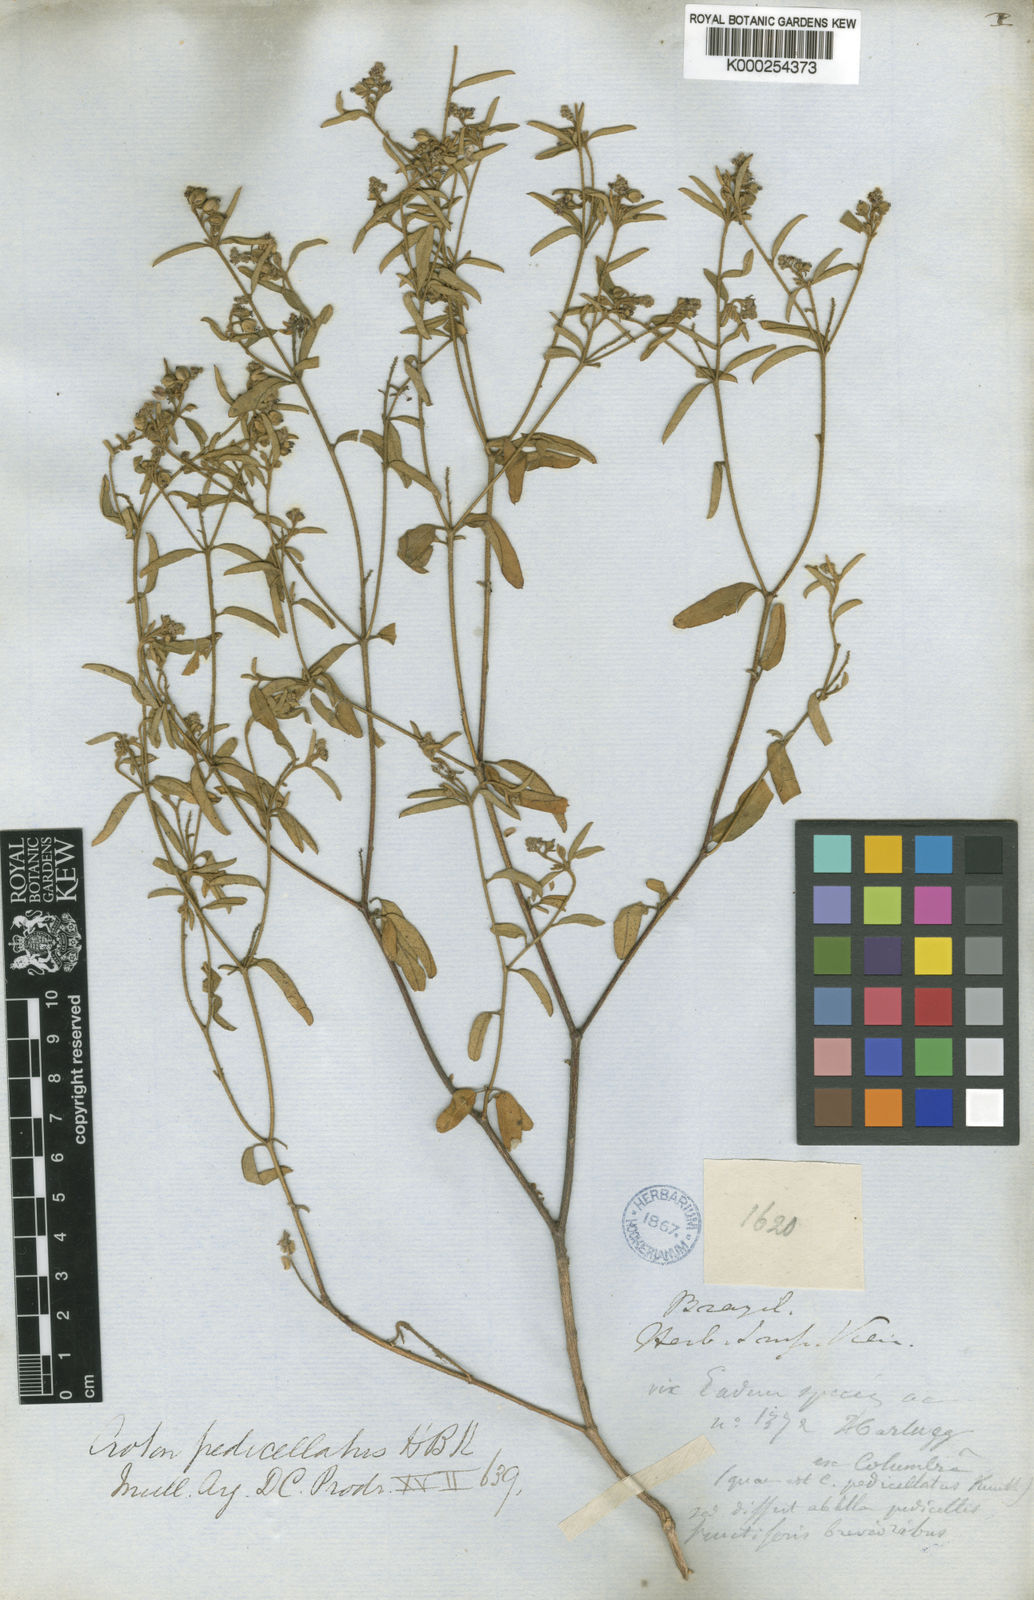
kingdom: Plantae
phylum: Tracheophyta
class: Magnoliopsida
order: Malpighiales
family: Euphorbiaceae
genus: Croton
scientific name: Croton pedicellatus
